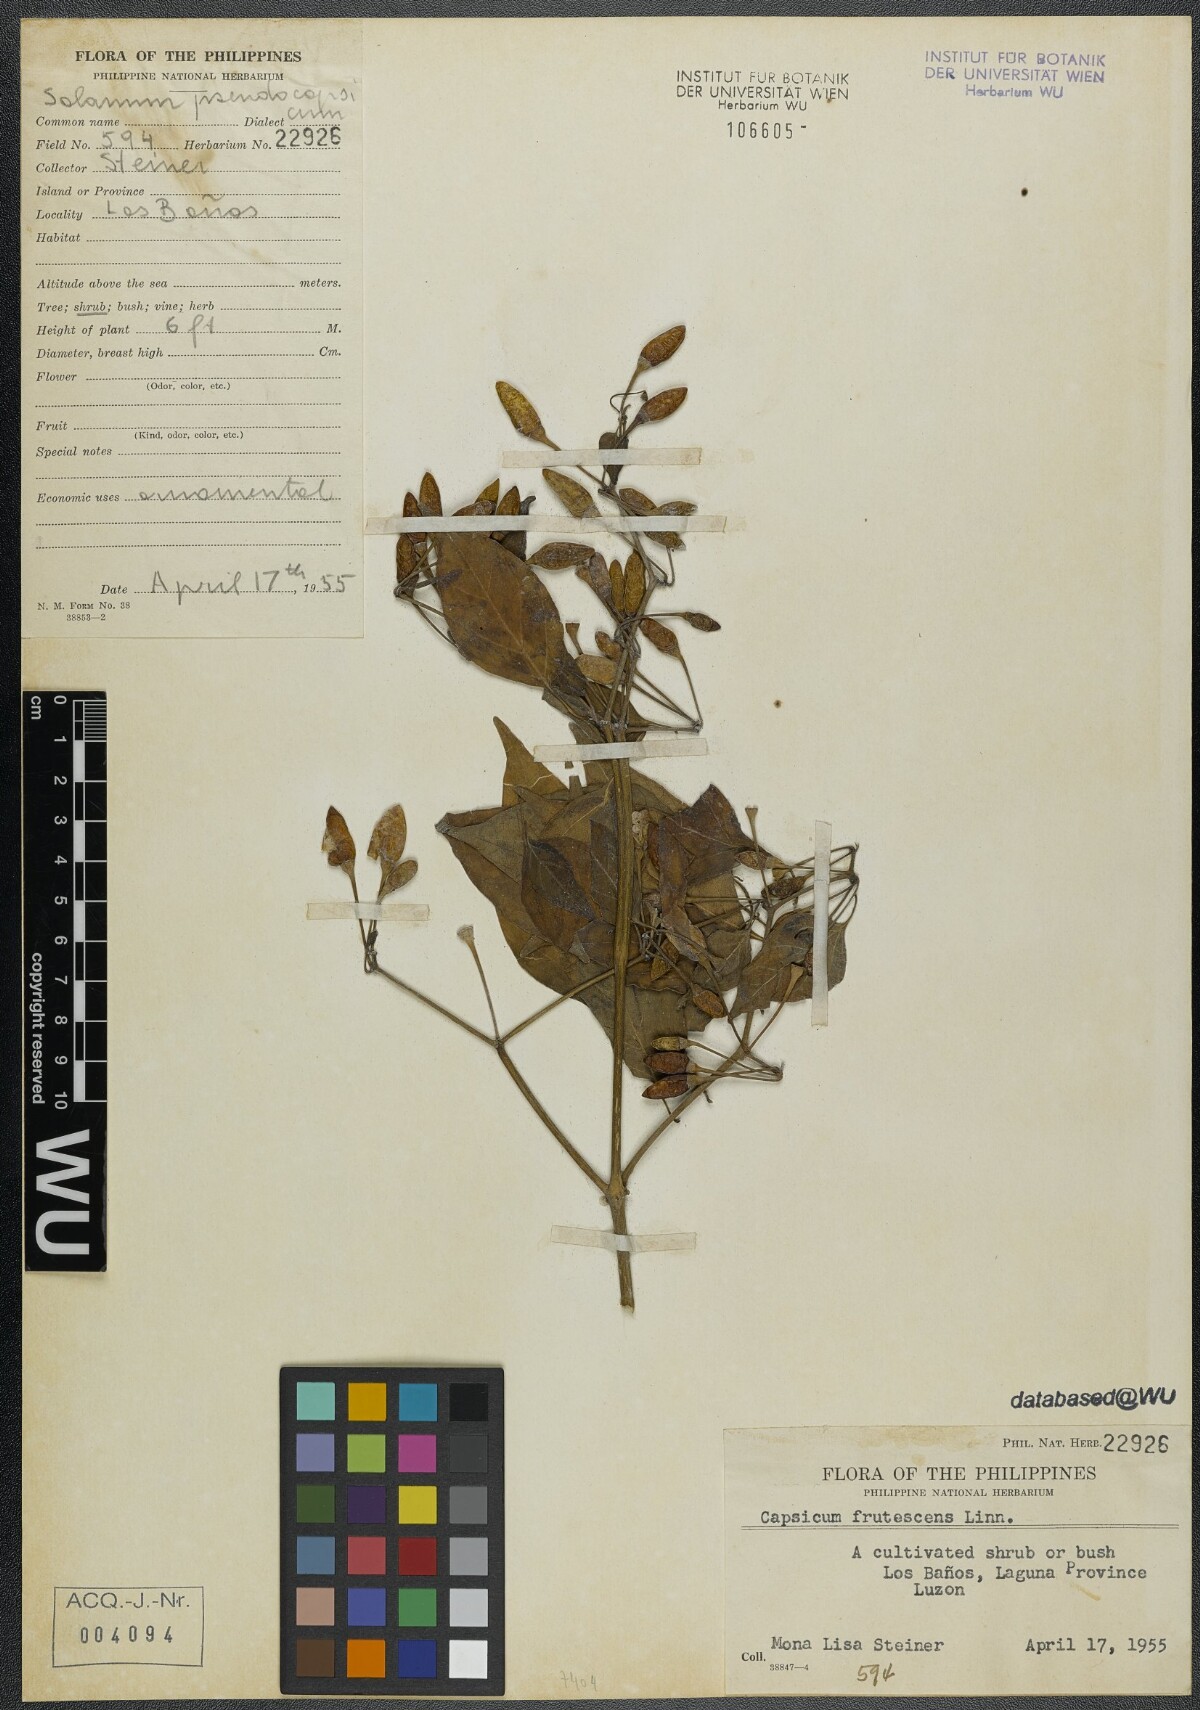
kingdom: Plantae
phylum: Tracheophyta
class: Magnoliopsida
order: Solanales
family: Solanaceae
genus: Capsicum
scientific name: Capsicum frutescens
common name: Bird pepper
